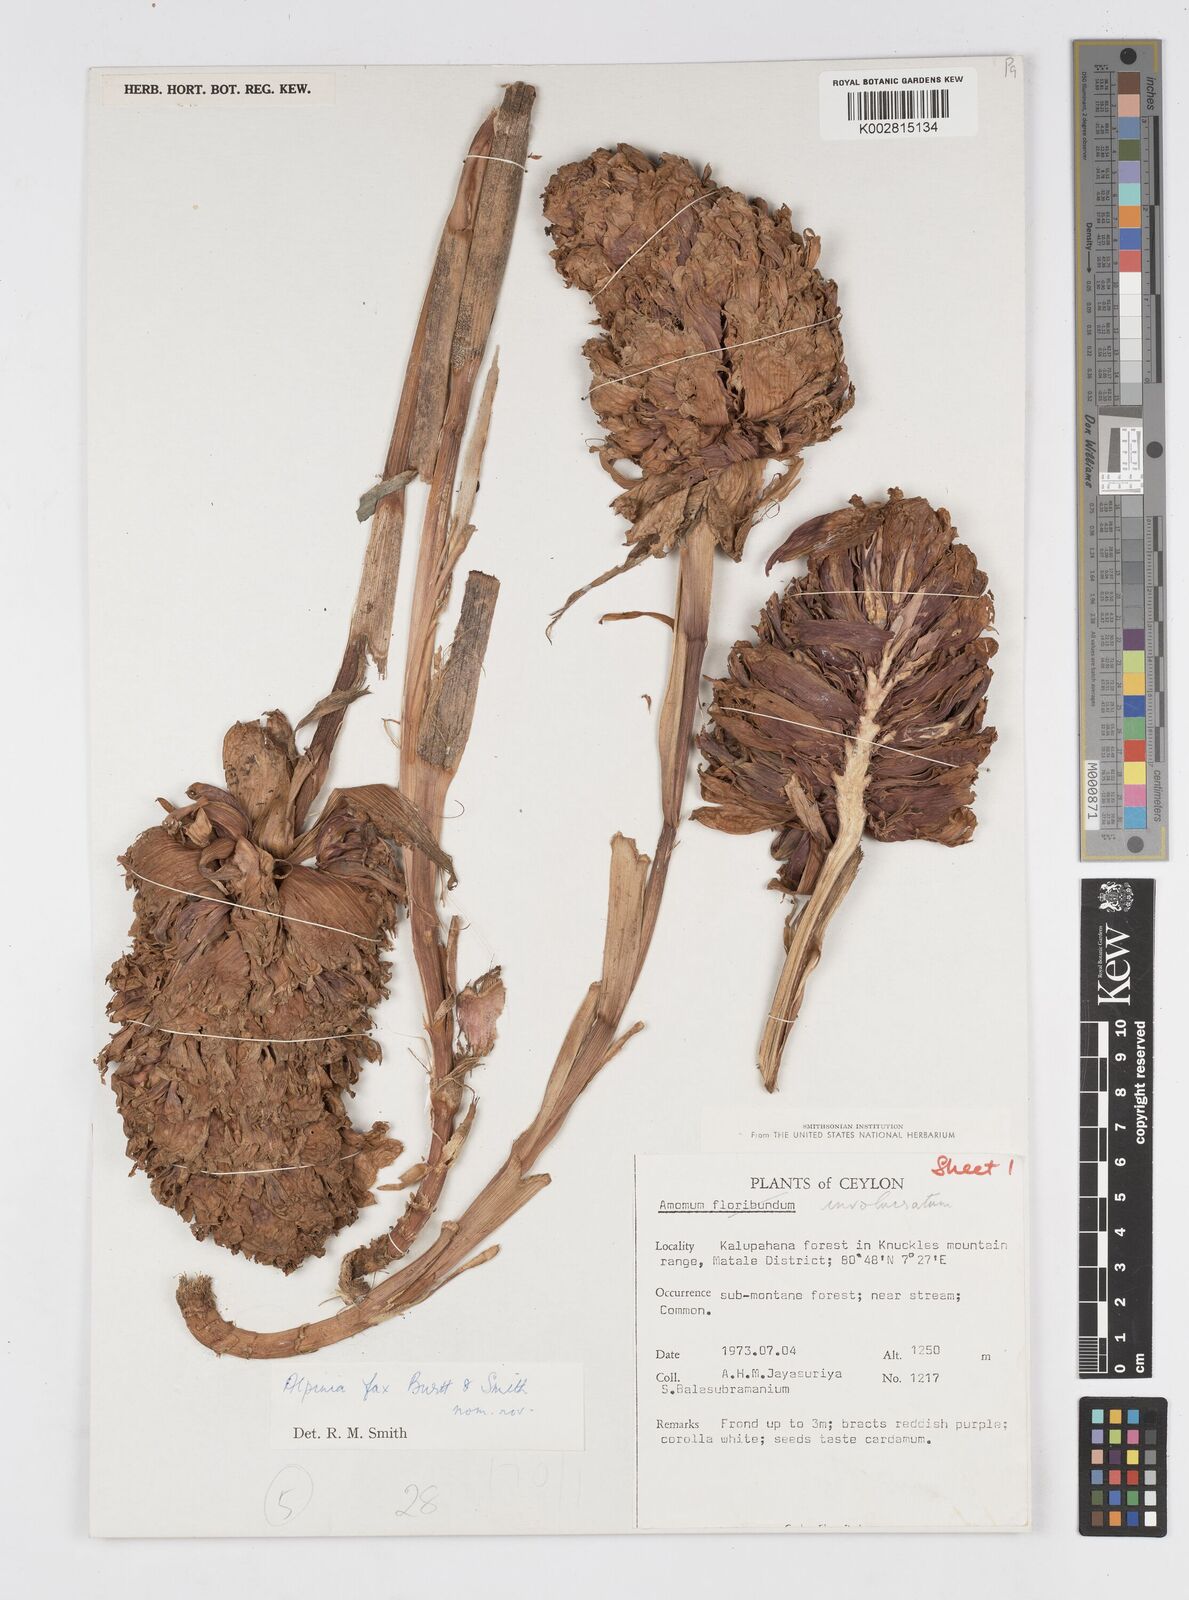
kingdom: Plantae
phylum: Tracheophyta
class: Liliopsida
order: Zingiberales
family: Zingiberaceae
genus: Alpinia
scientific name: Alpinia fax
